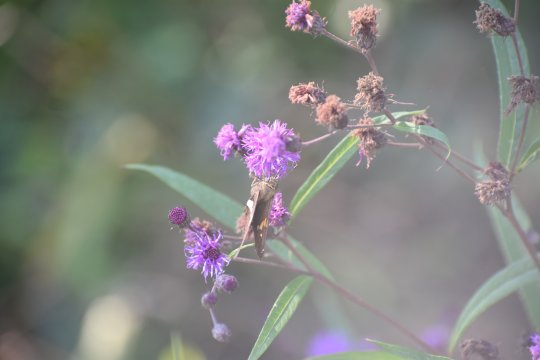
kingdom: Animalia
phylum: Arthropoda
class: Insecta
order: Lepidoptera
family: Hesperiidae
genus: Epargyreus
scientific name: Epargyreus clarus
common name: Silver-spotted Skipper
